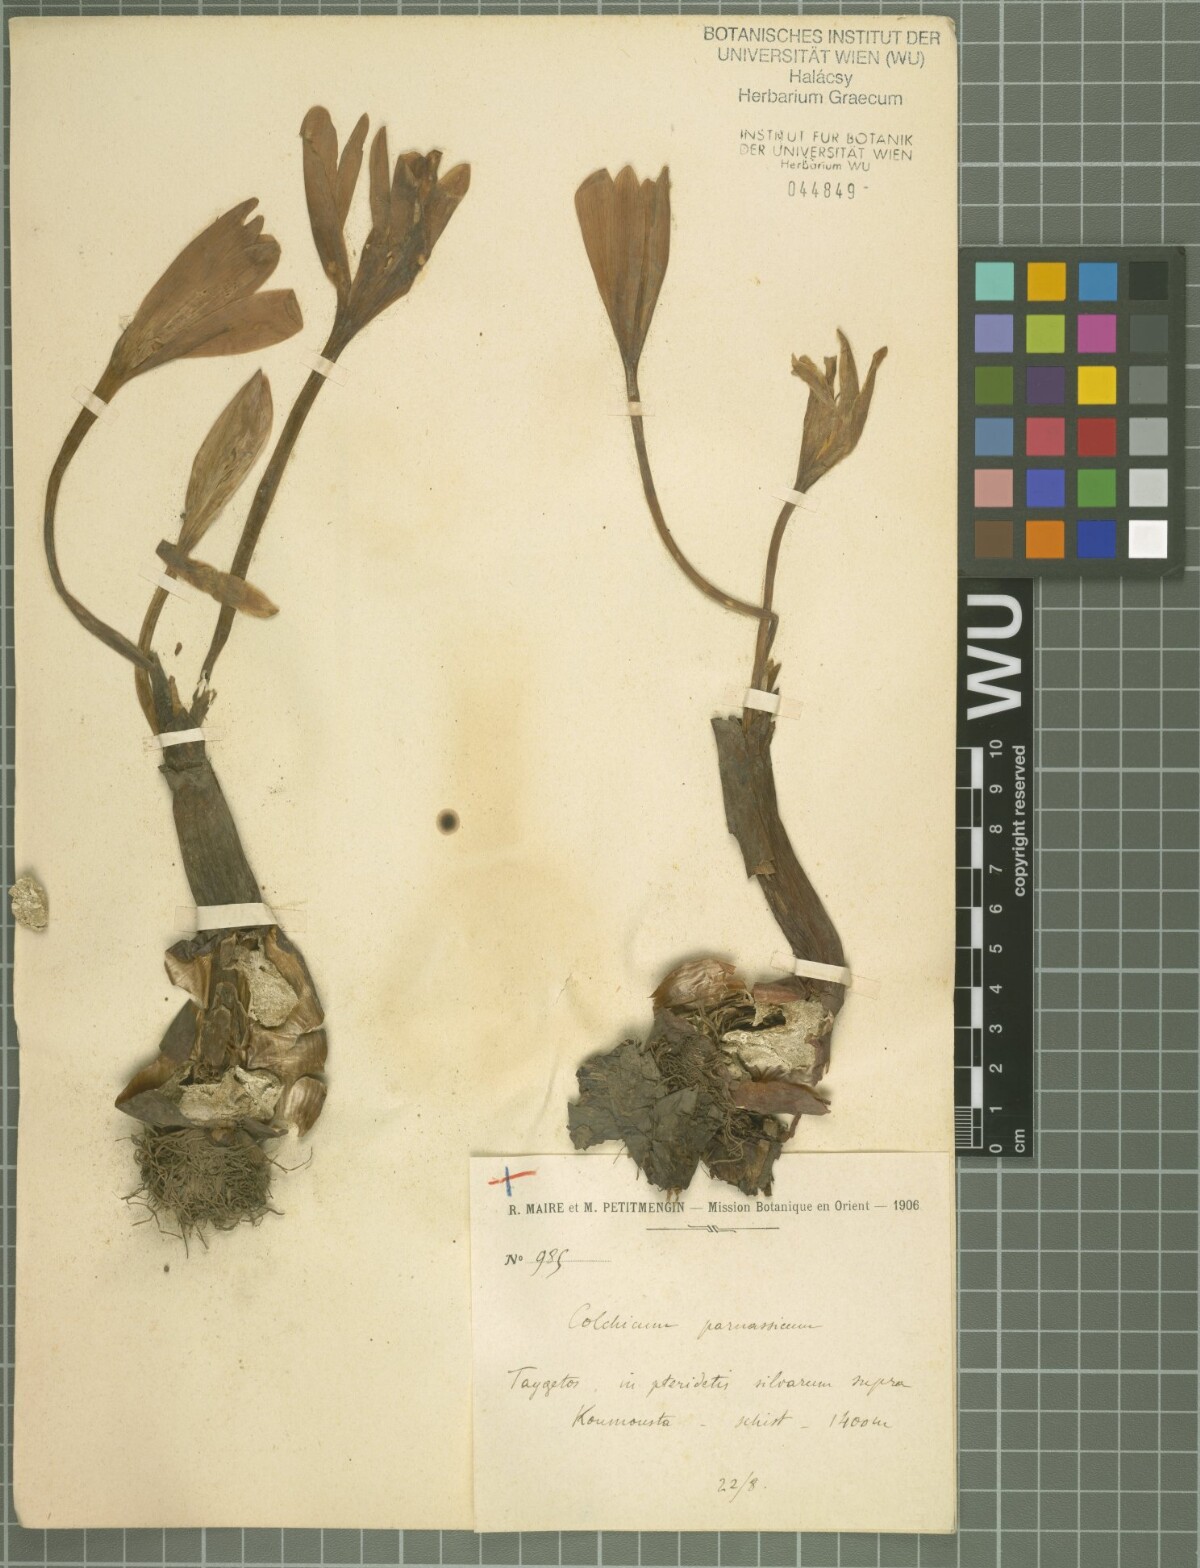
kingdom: Plantae
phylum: Tracheophyta
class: Liliopsida
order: Liliales
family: Colchicaceae
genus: Colchicum
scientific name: Colchicum graecum
